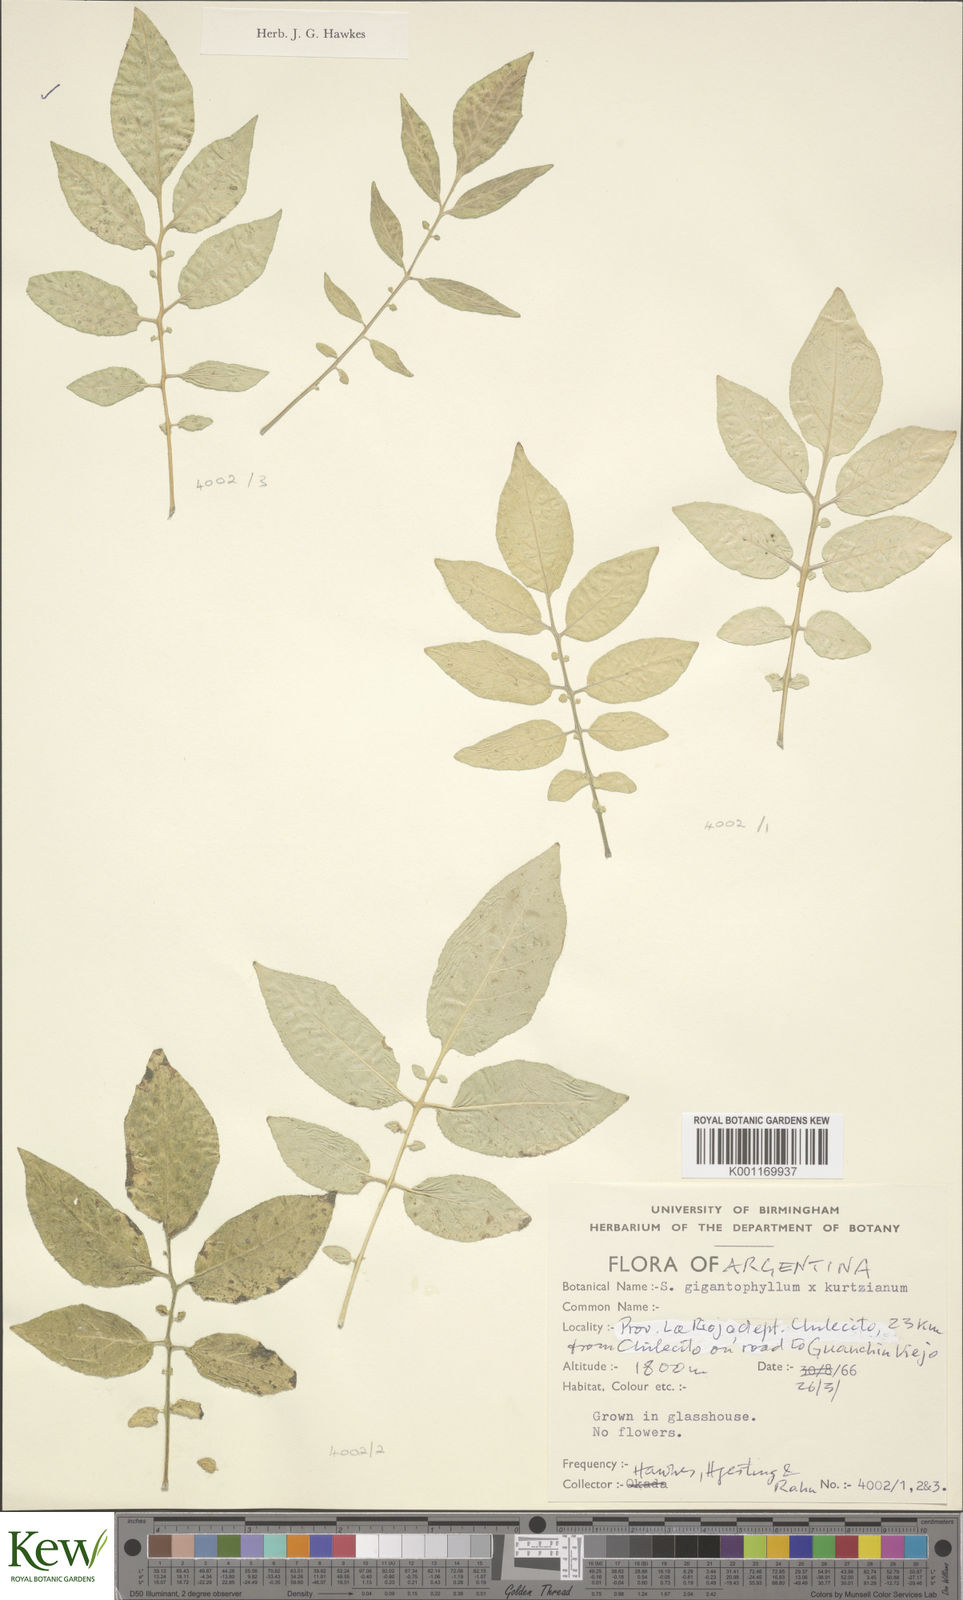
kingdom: Plantae
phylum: Tracheophyta
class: Magnoliopsida
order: Solanales
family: Solanaceae
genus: Solanum
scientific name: Solanum rechei
